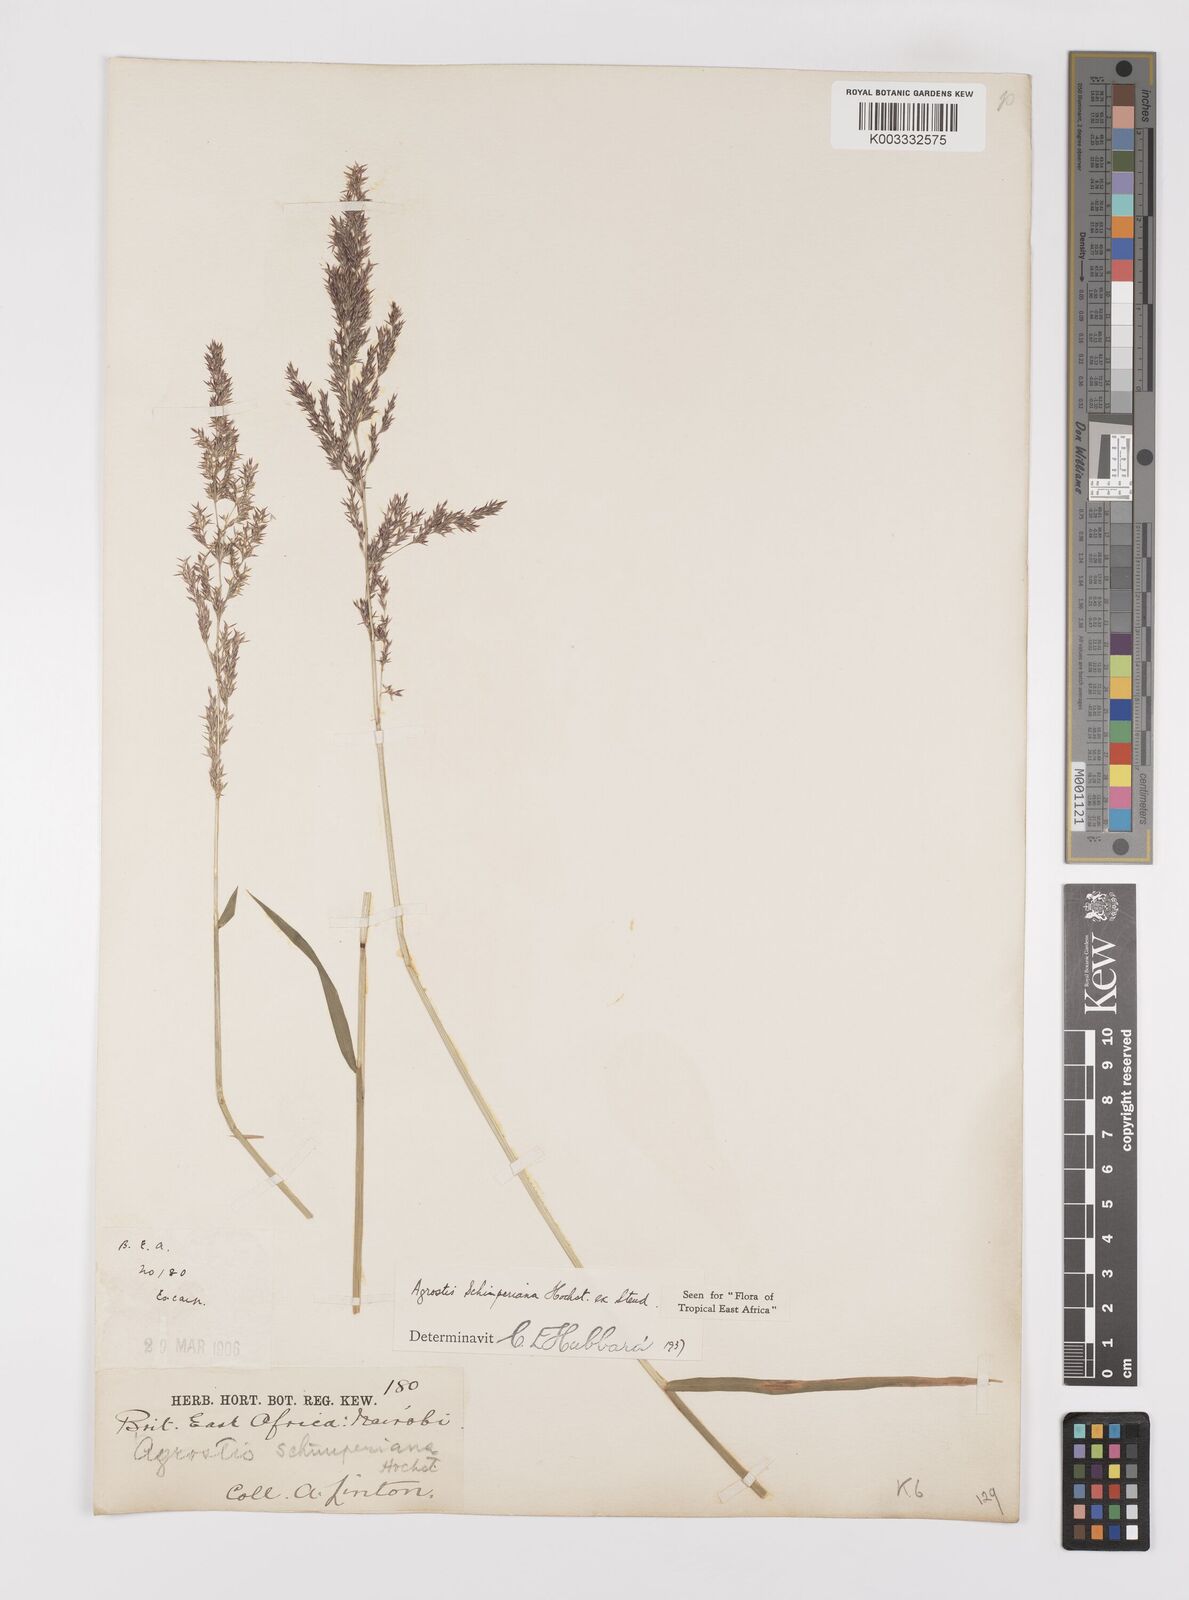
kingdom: Plantae
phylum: Tracheophyta
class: Liliopsida
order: Poales
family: Poaceae
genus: Polypogon
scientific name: Polypogon schimperianus
